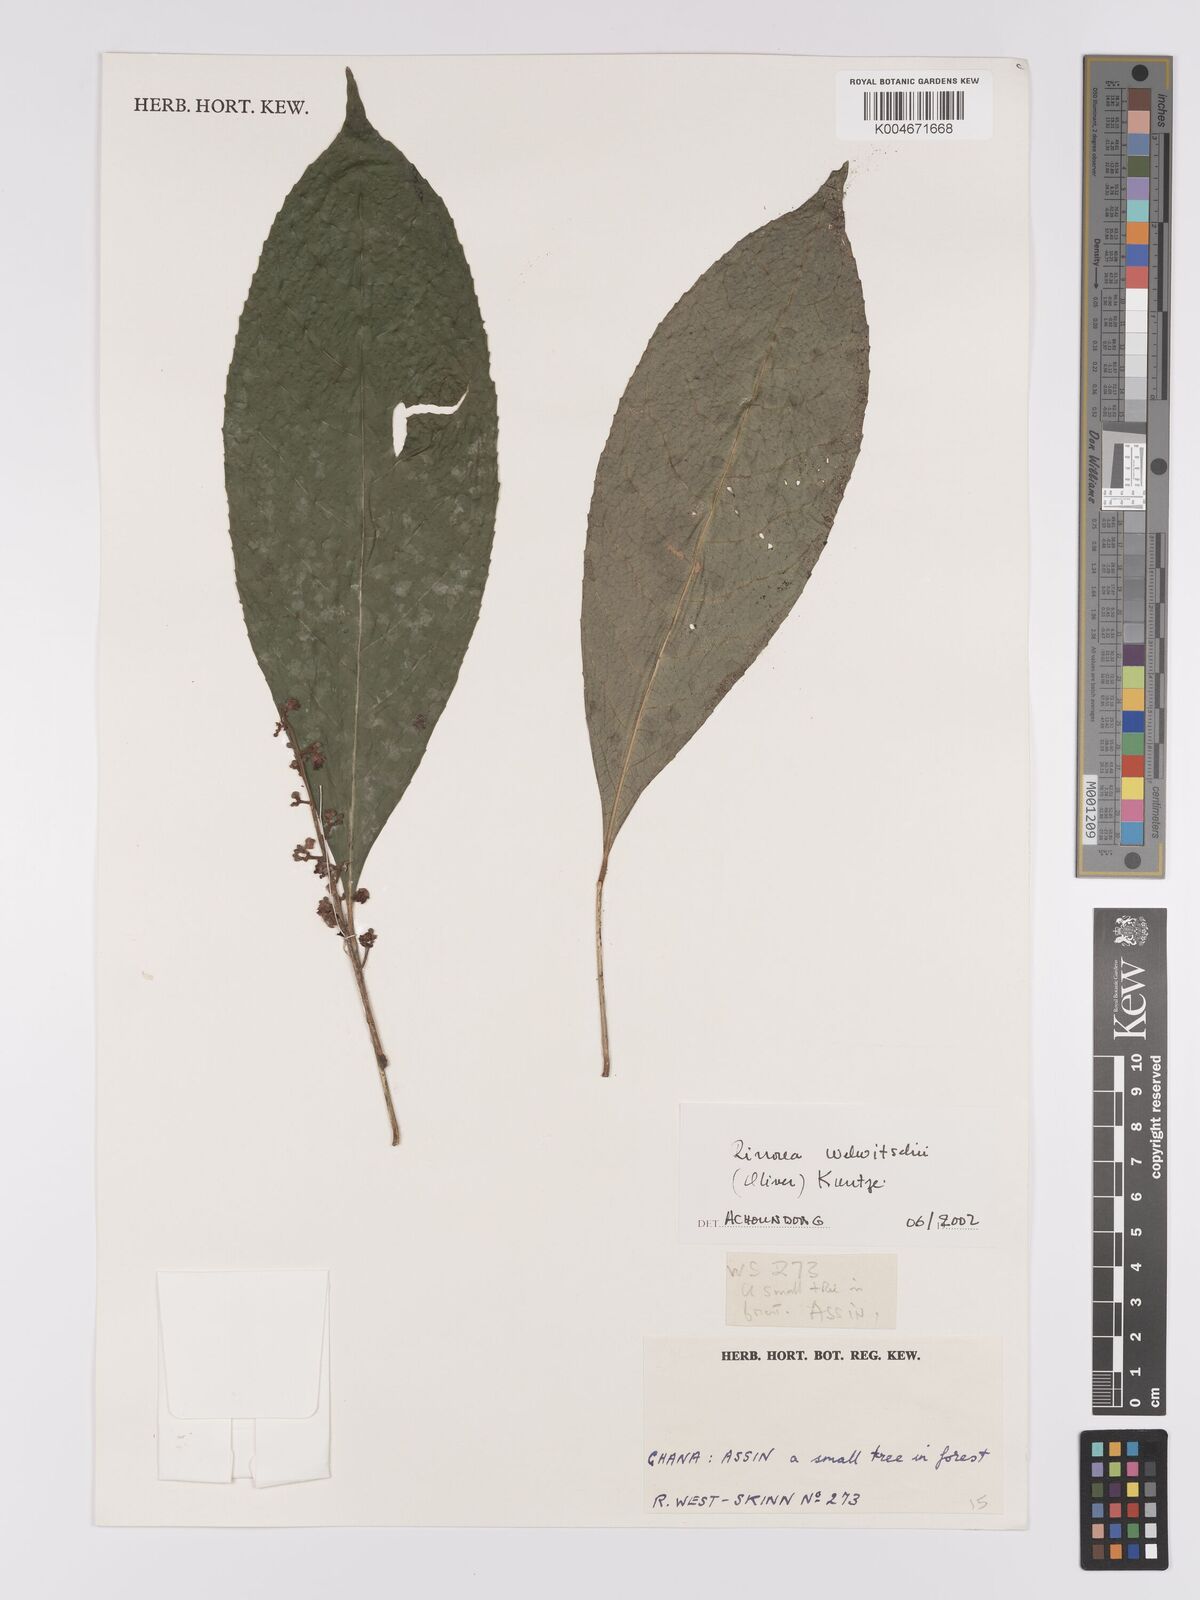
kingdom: Plantae
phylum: Tracheophyta
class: Magnoliopsida
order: Malpighiales
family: Violaceae
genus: Rinorea
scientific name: Rinorea welwitschii
